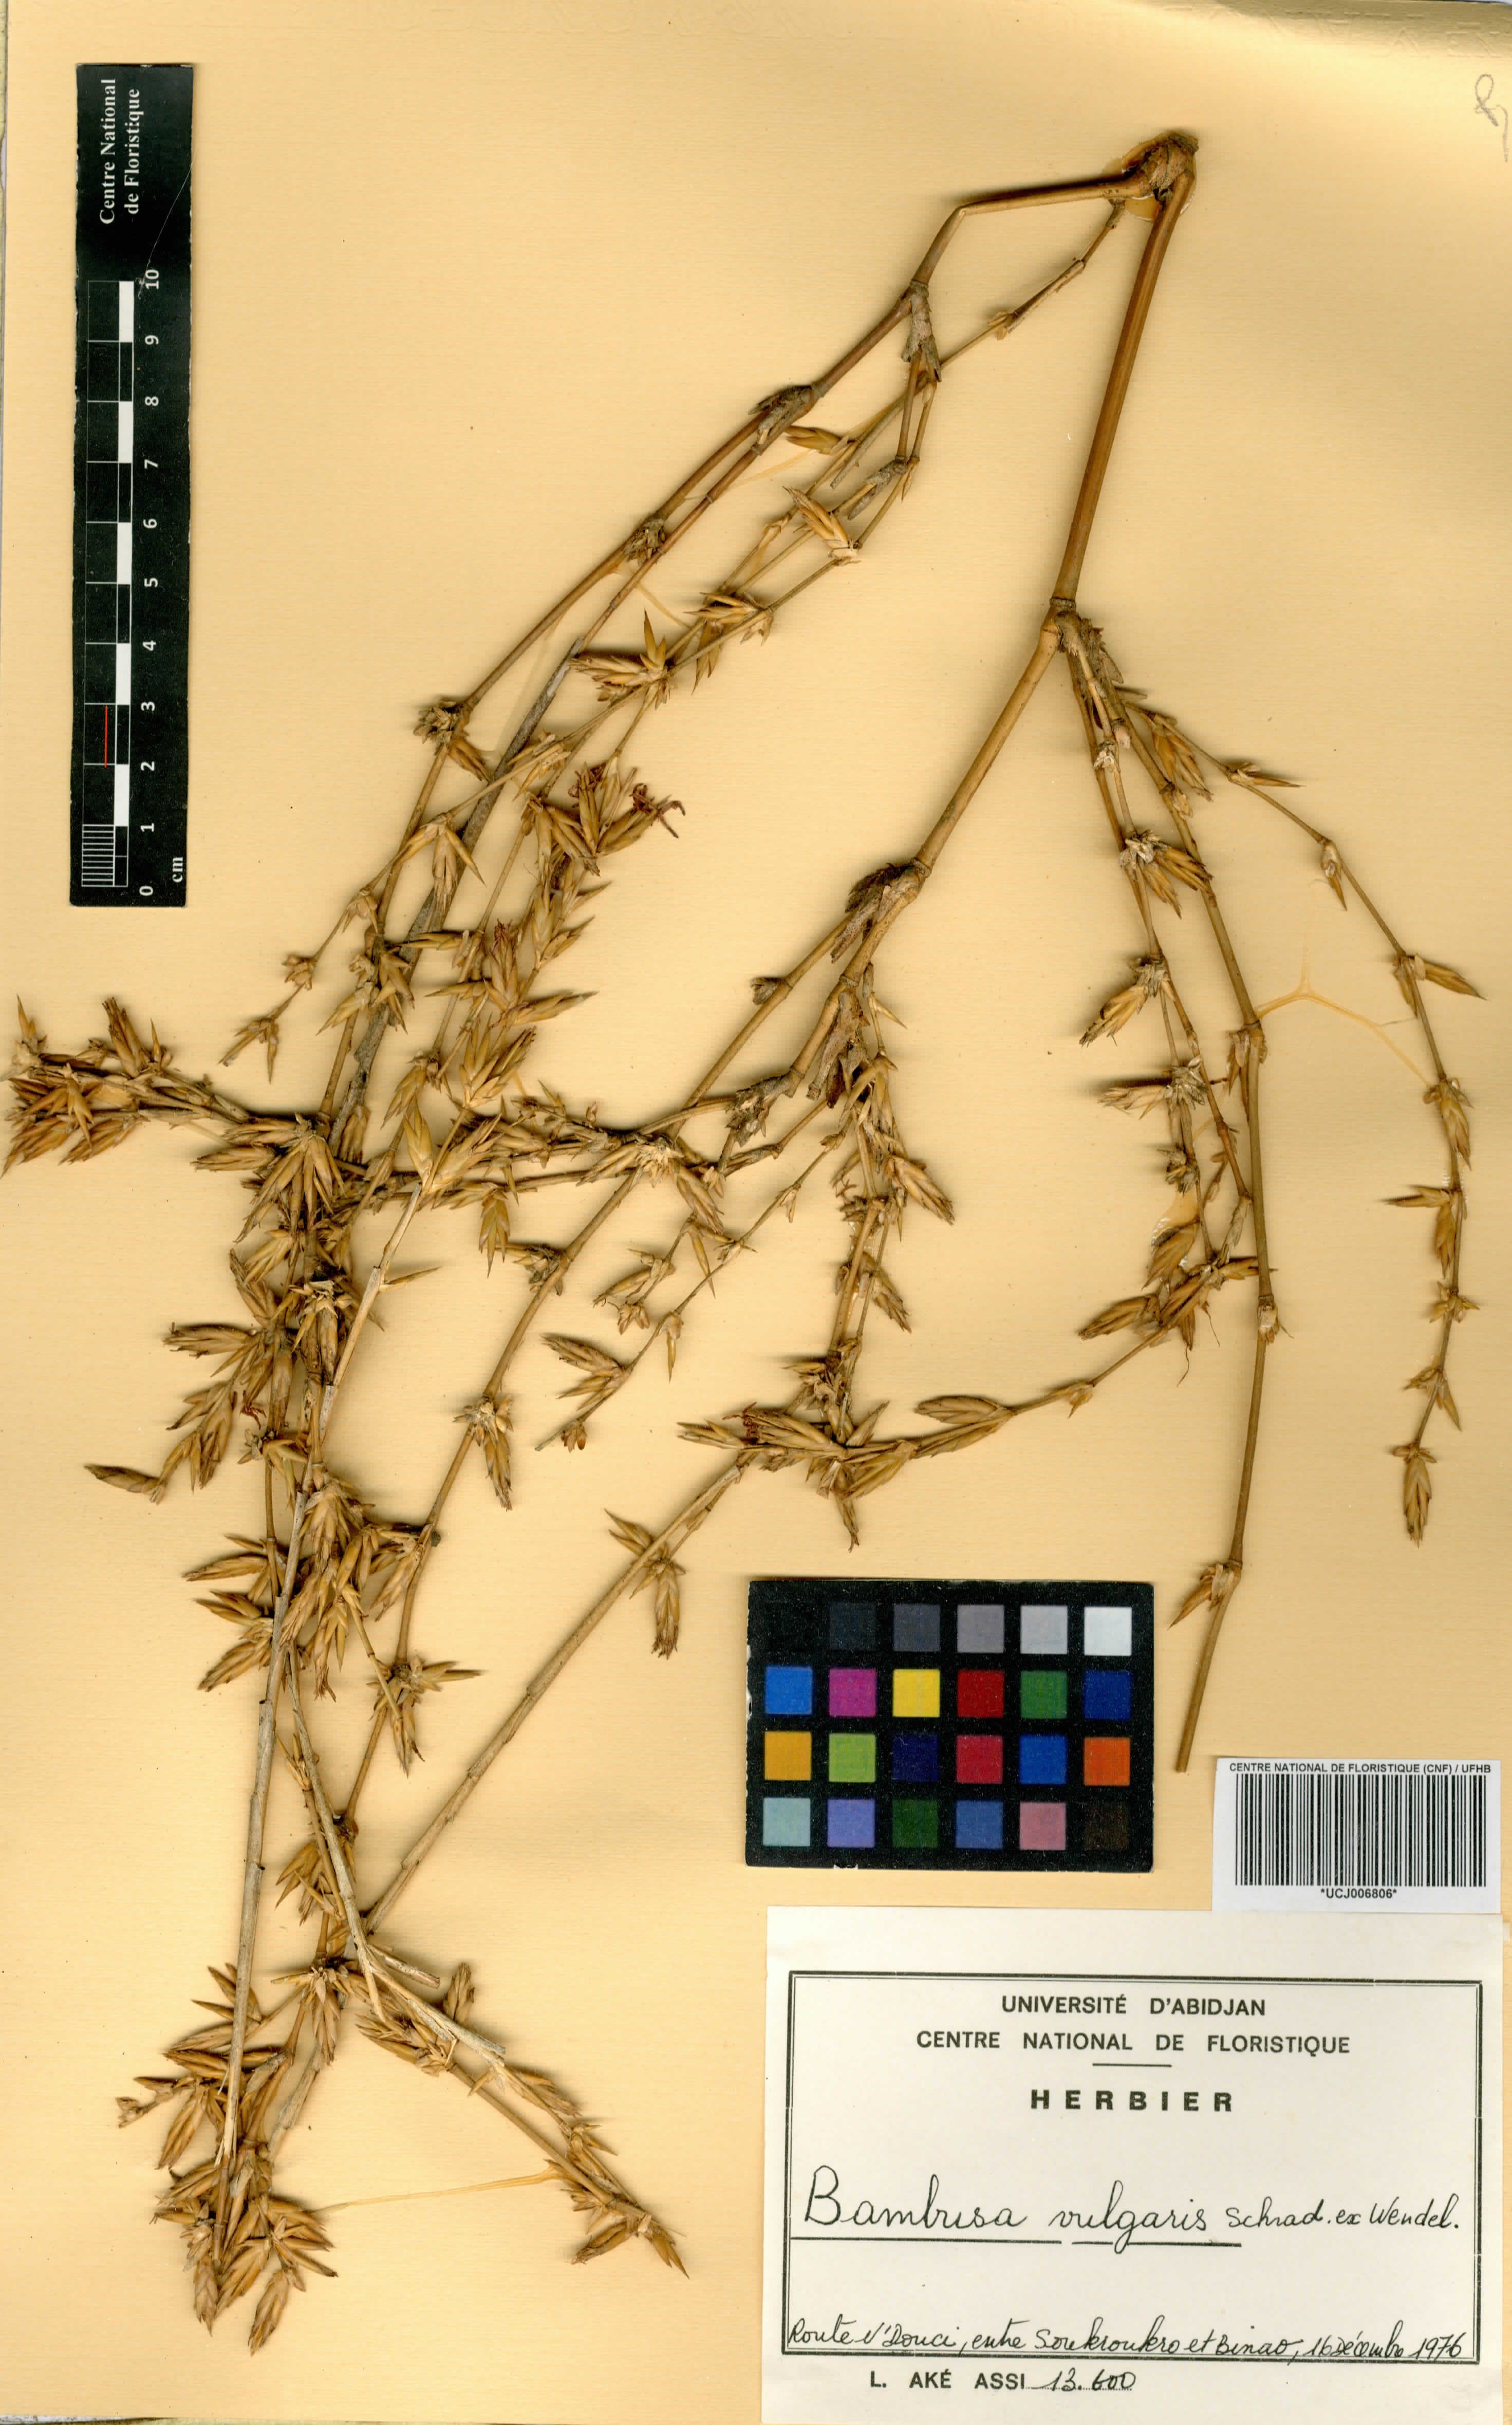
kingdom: Plantae
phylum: Tracheophyta
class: Liliopsida
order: Poales
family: Poaceae
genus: Bambusa
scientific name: Bambusa vulgaris
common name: Common bamboo
